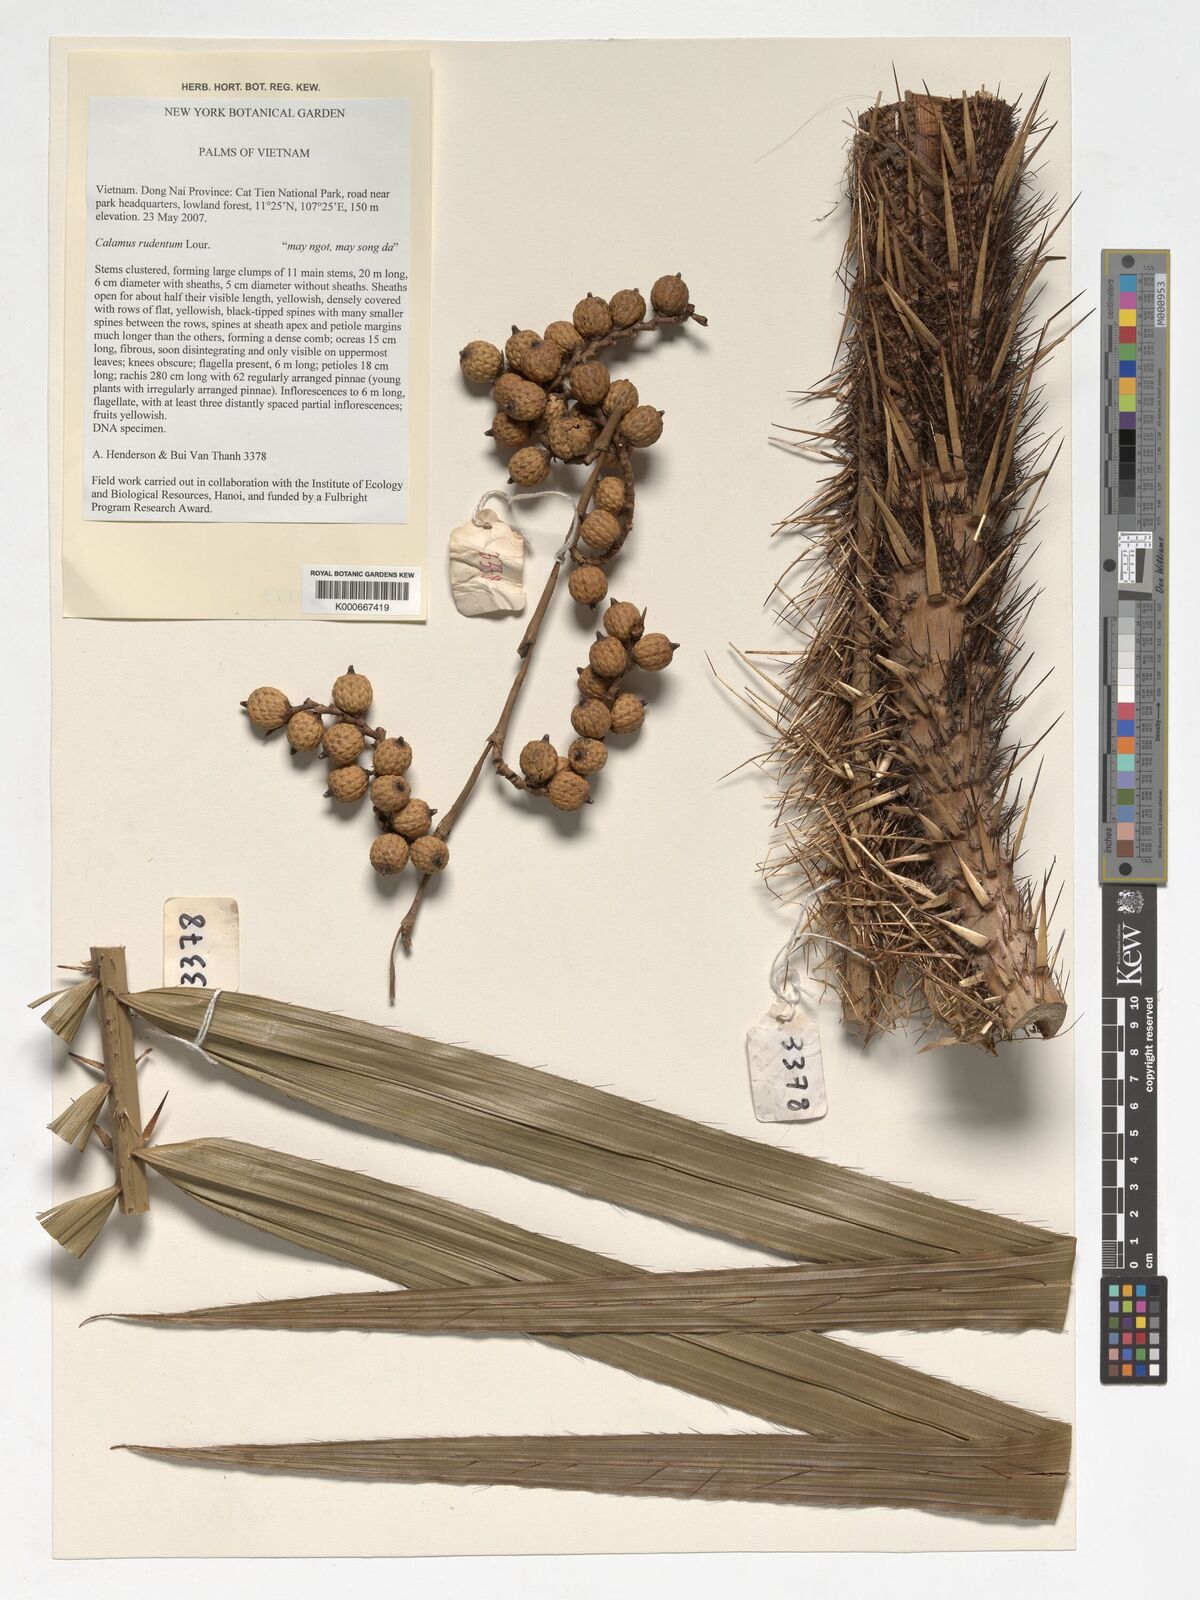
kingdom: Plantae
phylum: Tracheophyta
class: Liliopsida
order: Arecales
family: Arecaceae
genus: Calamus
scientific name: Calamus rudentum
